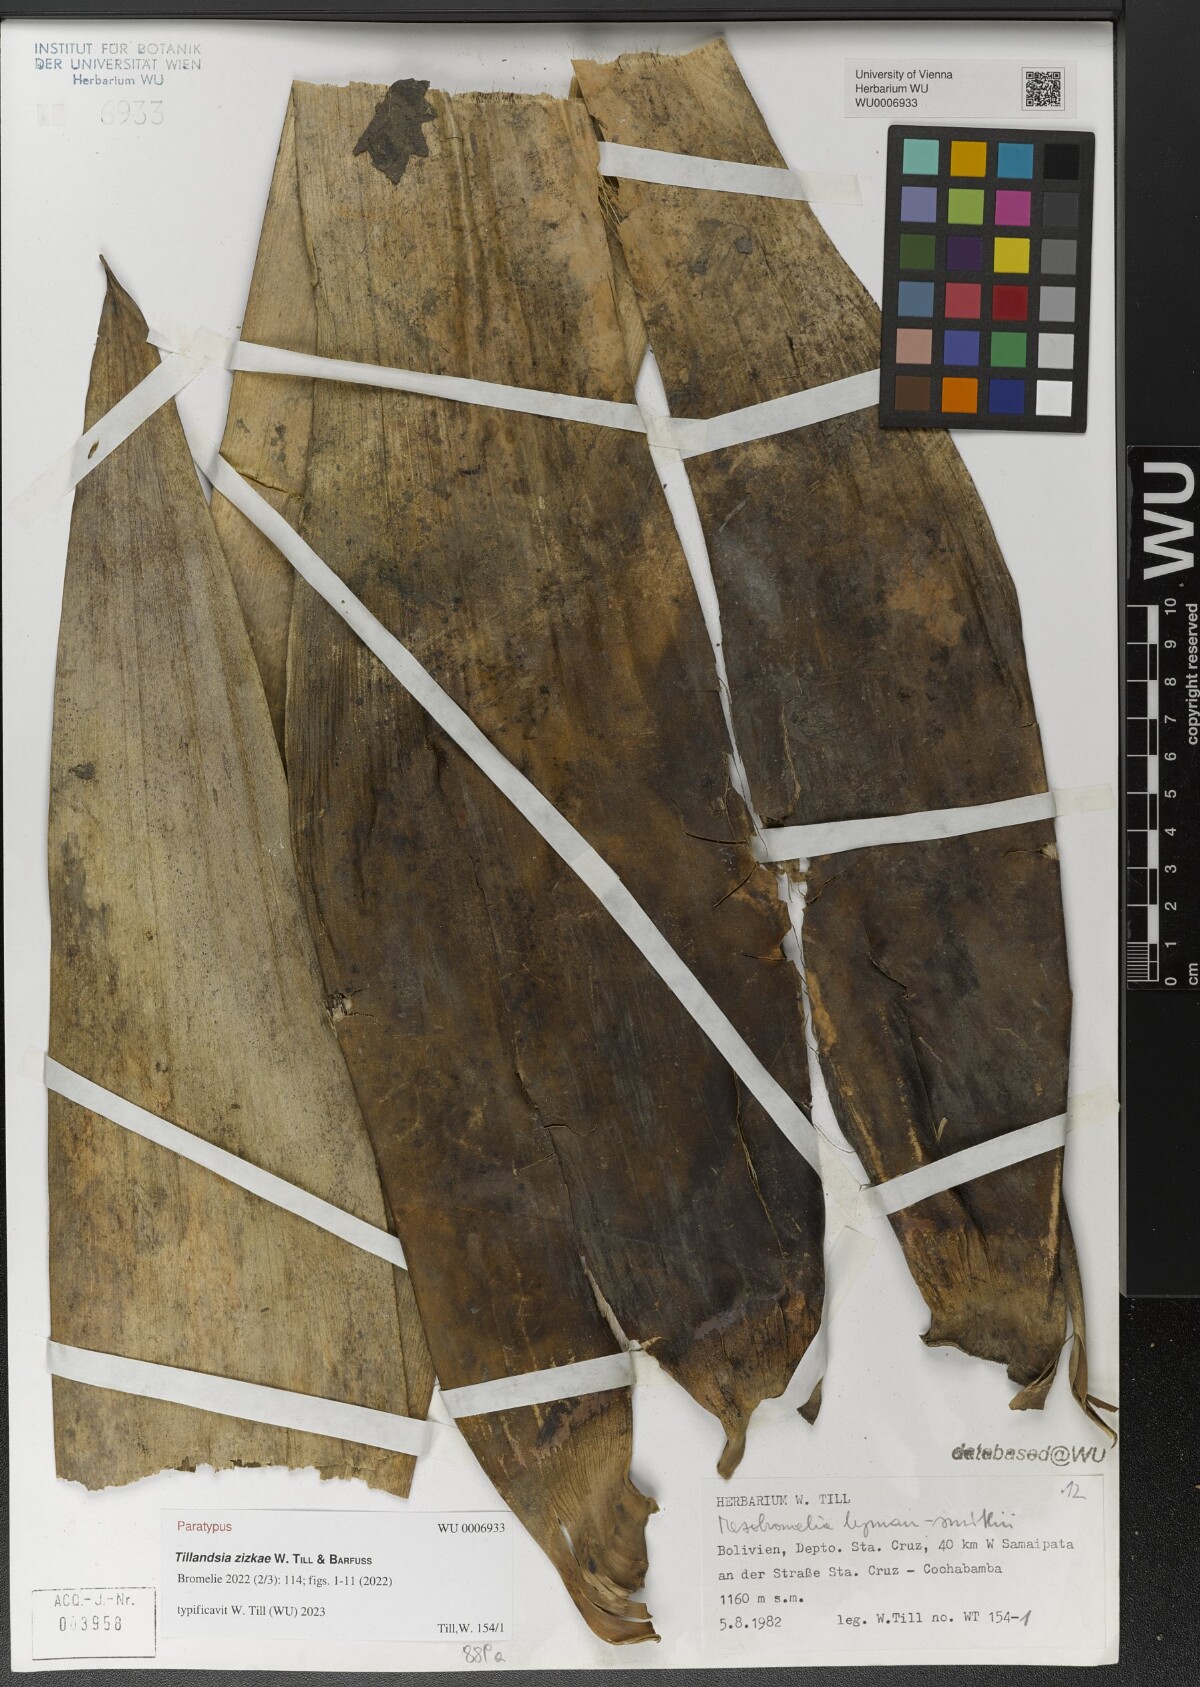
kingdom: Plantae
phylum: Tracheophyta
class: Liliopsida
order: Poales
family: Bromeliaceae
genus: Tillandsia
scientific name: Tillandsia
